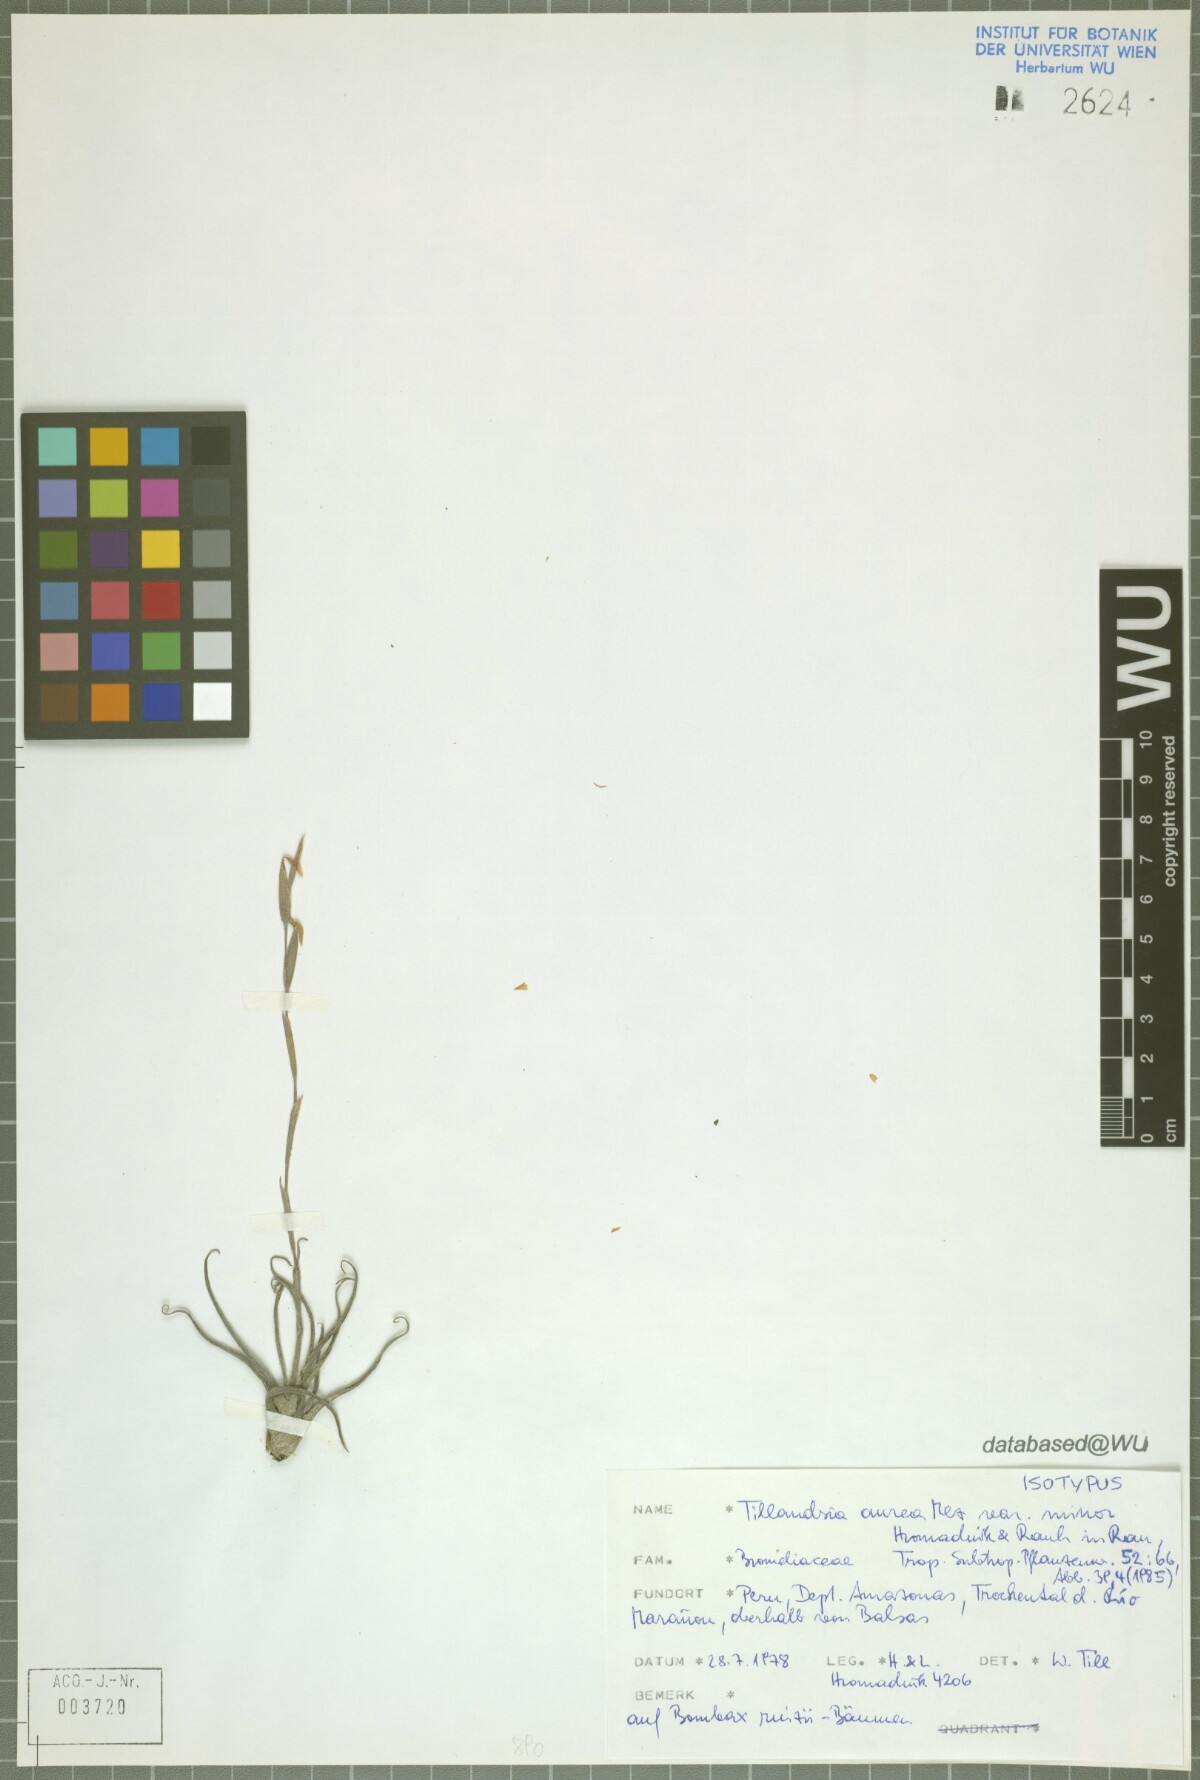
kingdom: Plantae
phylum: Tracheophyta
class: Liliopsida
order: Poales
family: Bromeliaceae
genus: Tillandsia
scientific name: Tillandsia aurea
